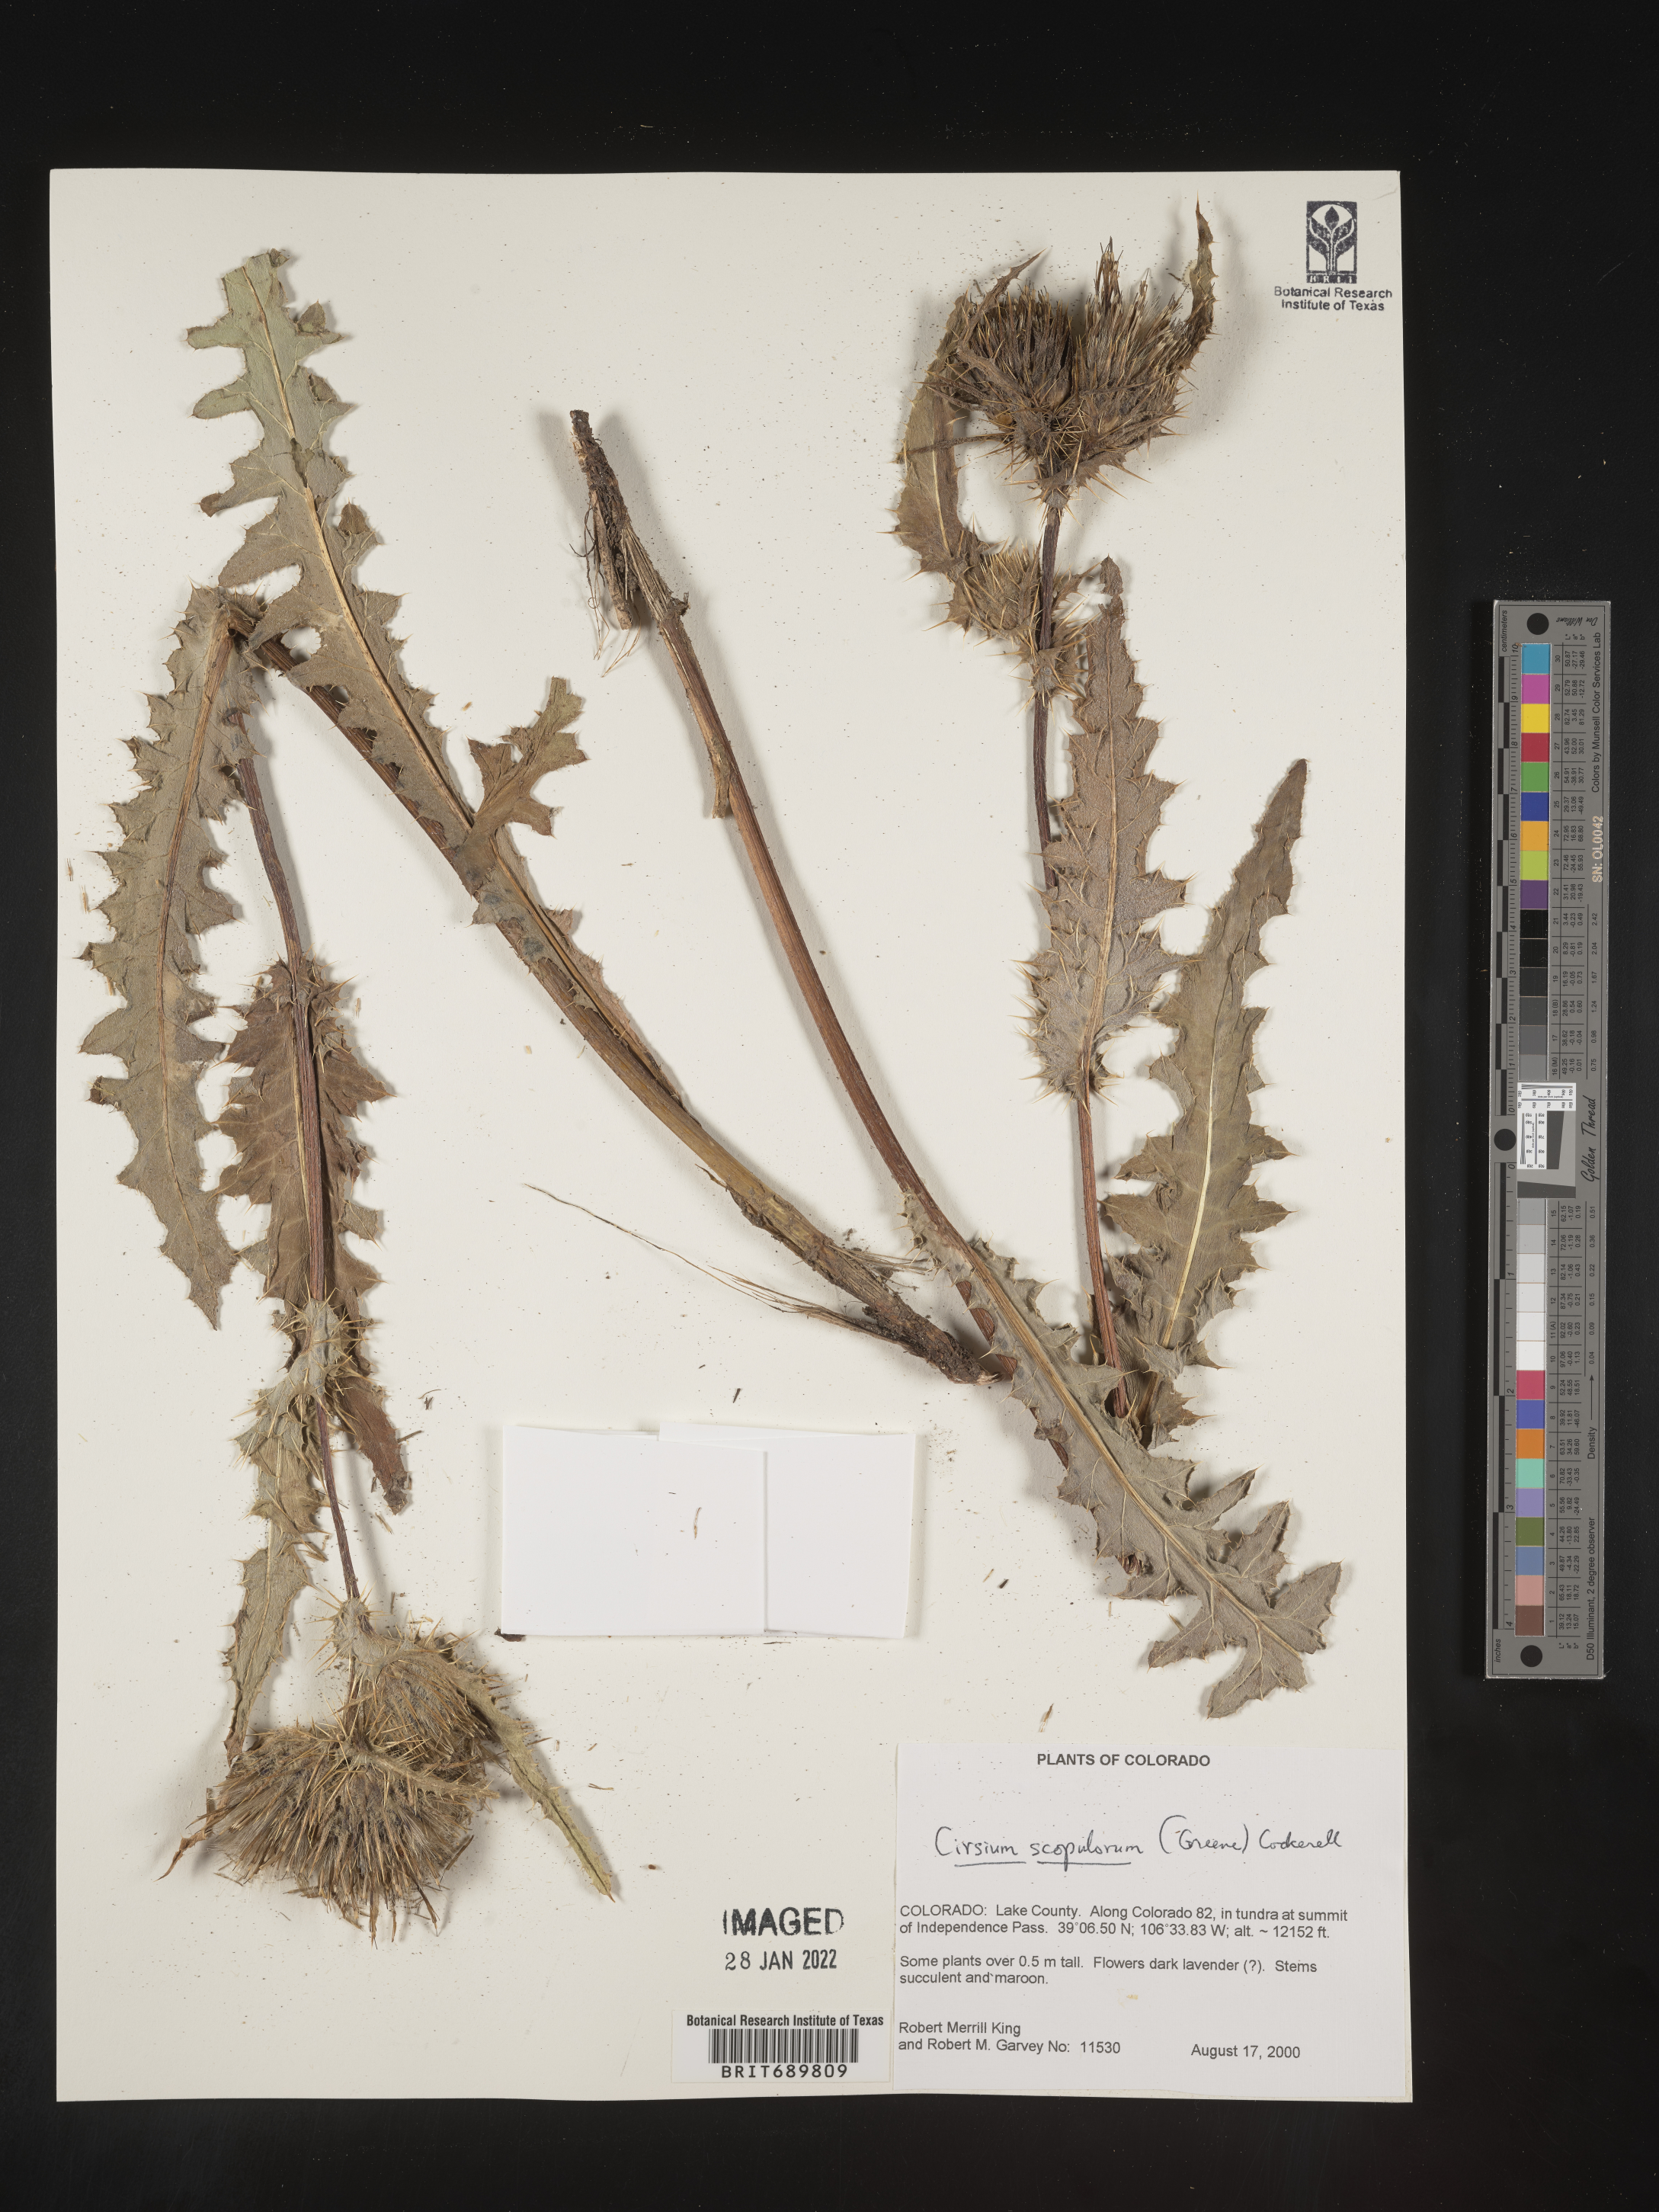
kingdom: Plantae
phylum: Tracheophyta
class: Magnoliopsida
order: Asterales
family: Asteraceae
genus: Cirsium
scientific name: Cirsium scopulorum
